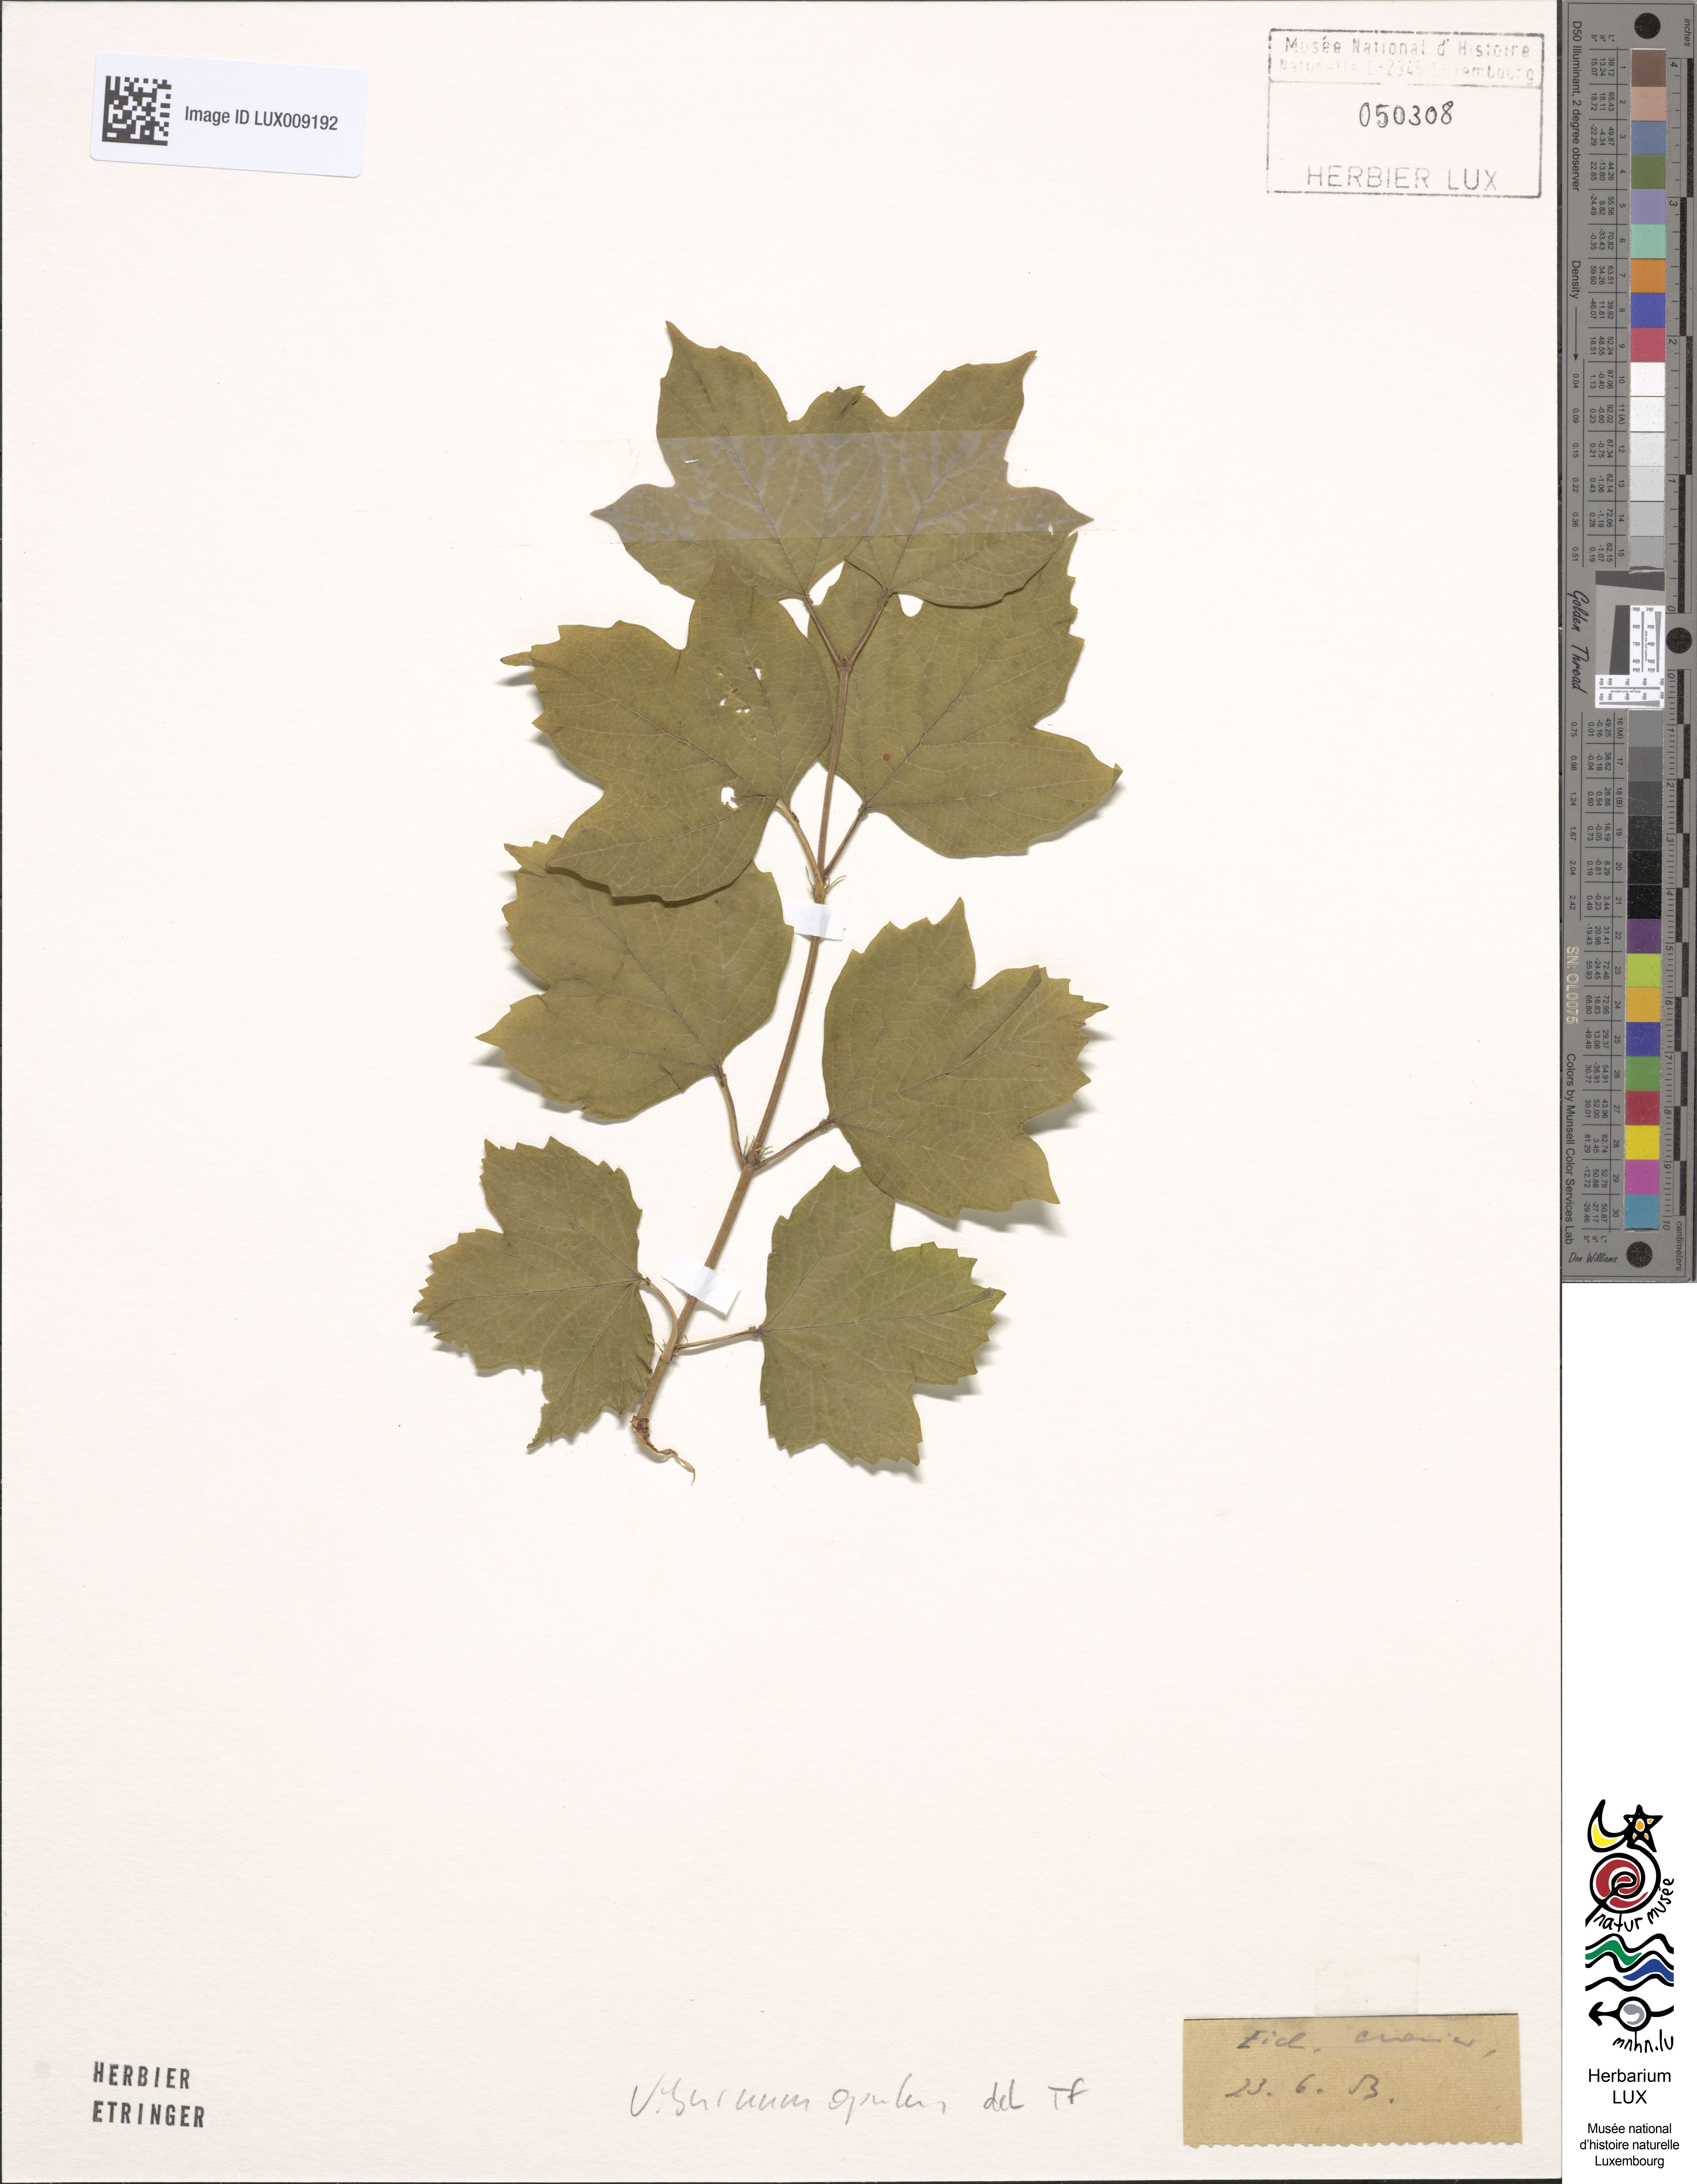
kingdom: Plantae
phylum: Tracheophyta
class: Magnoliopsida
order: Dipsacales
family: Viburnaceae
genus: Viburnum
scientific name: Viburnum opulus
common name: Guelder-rose
